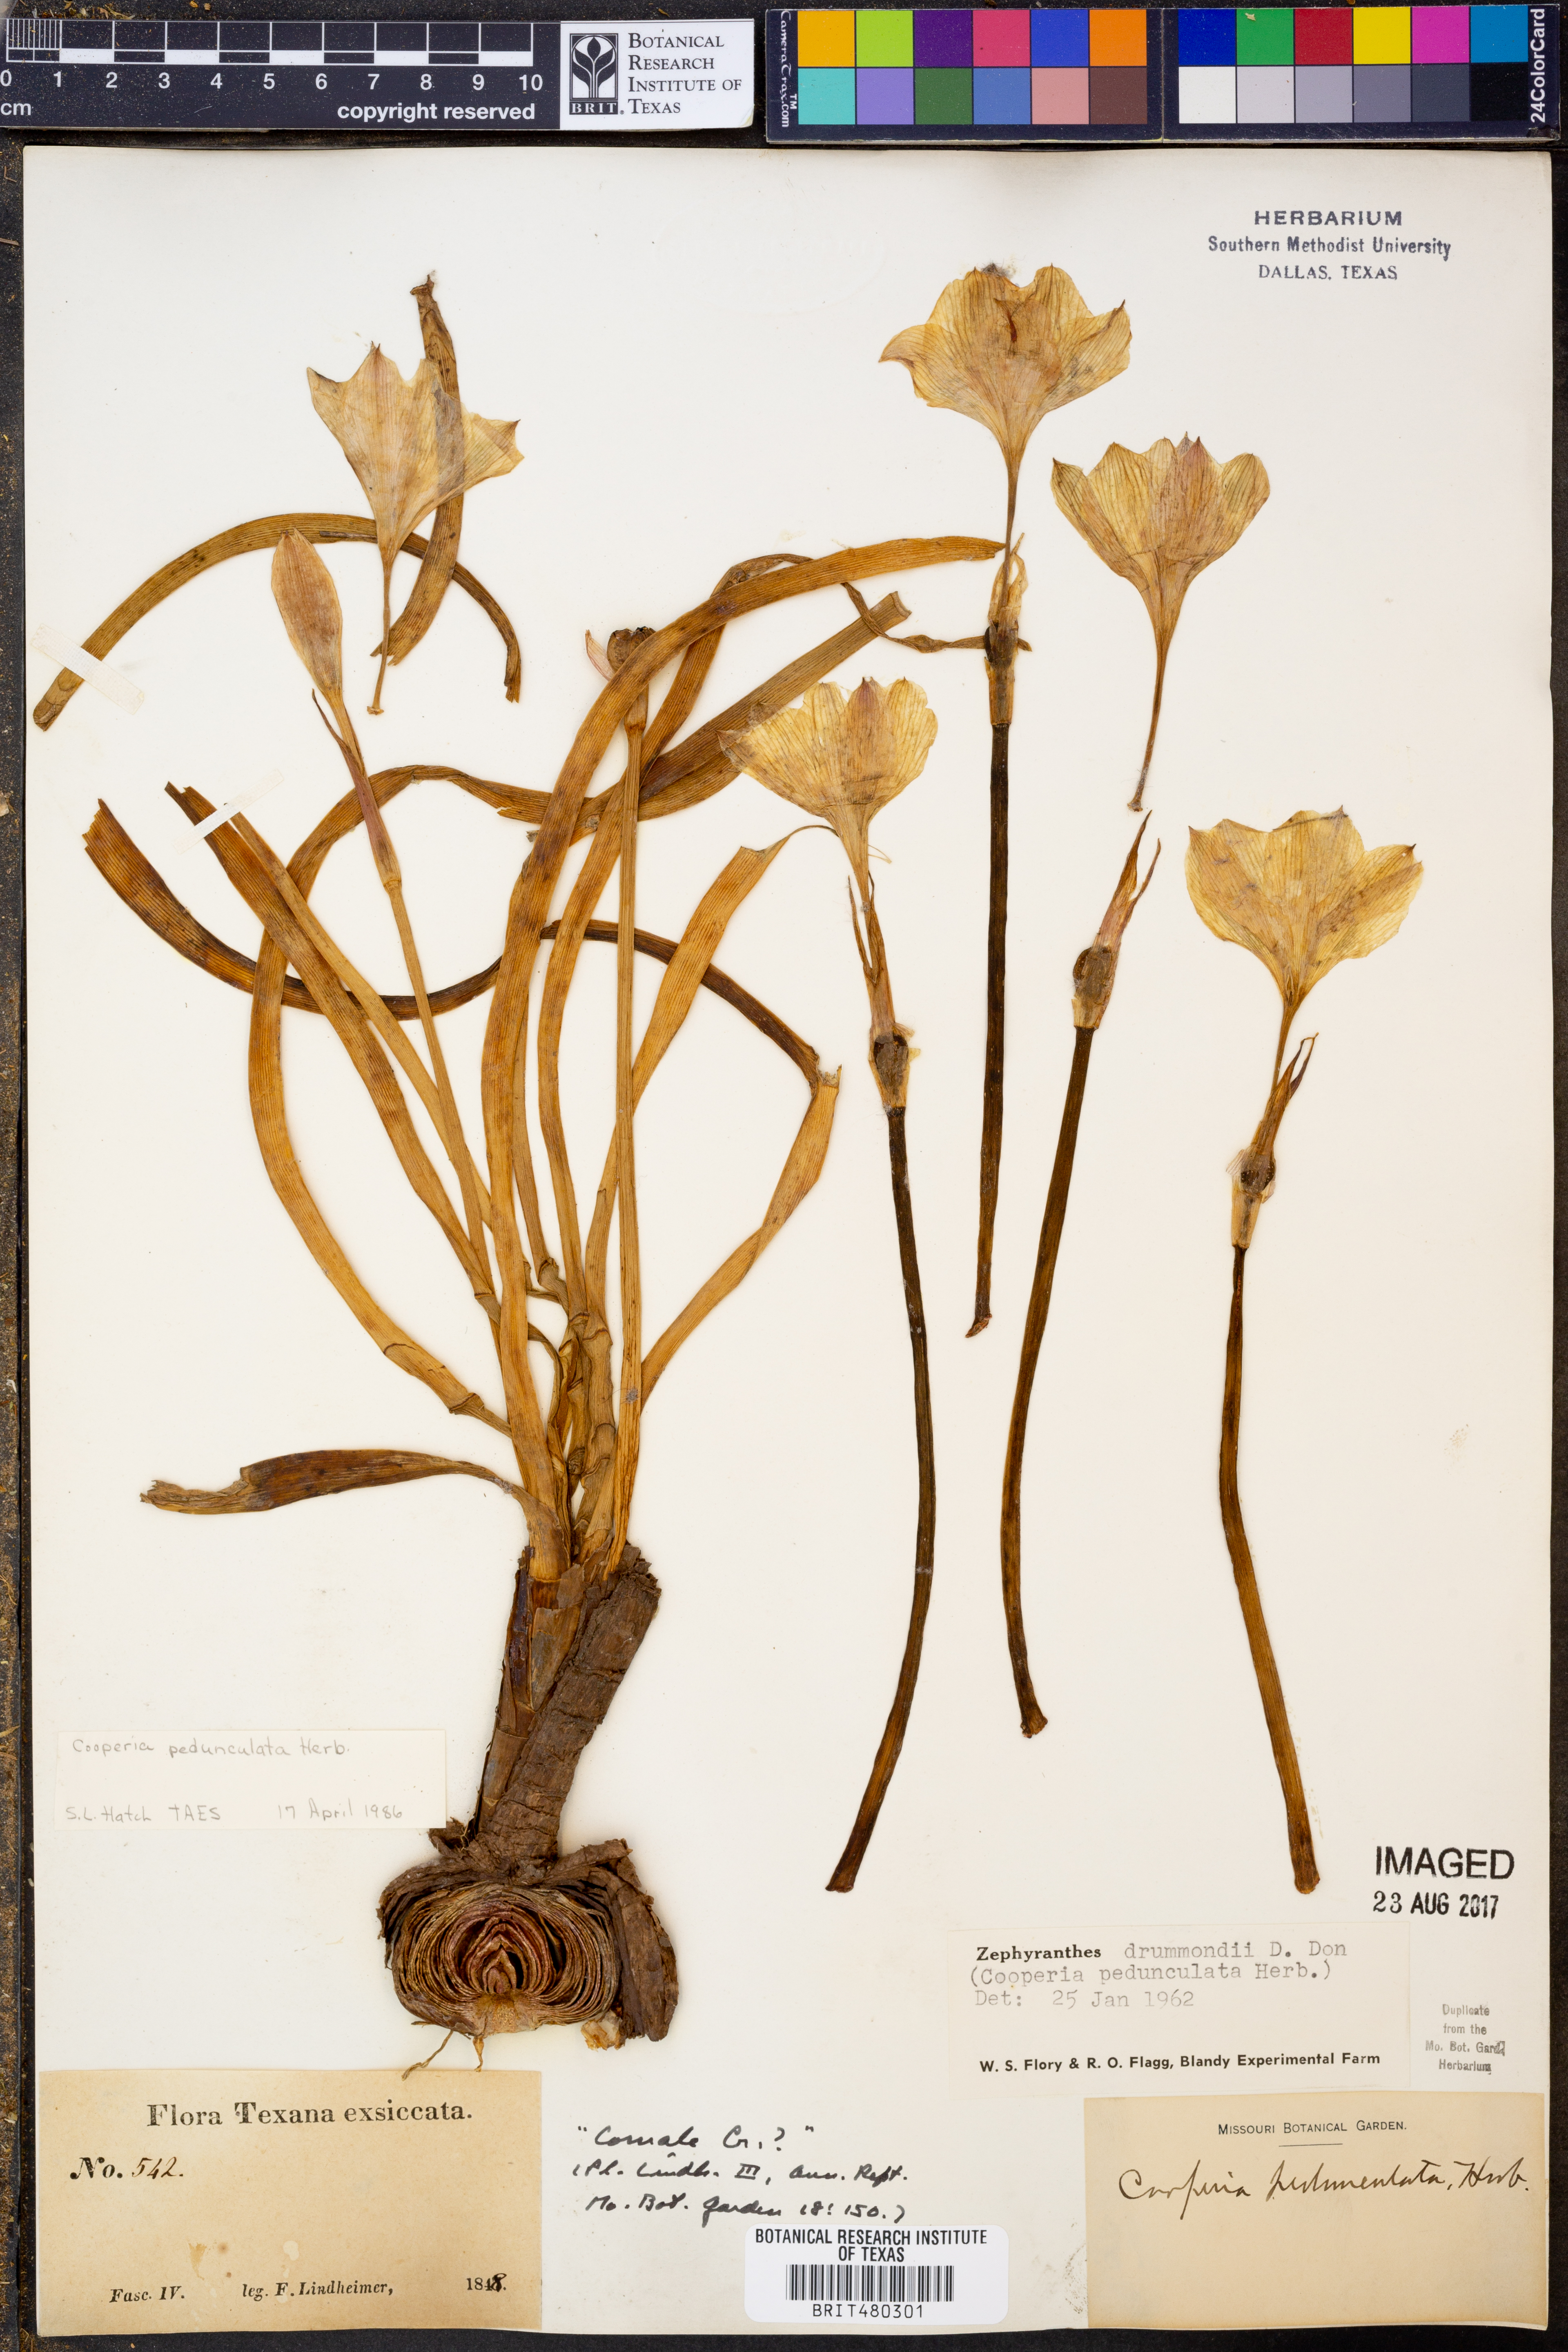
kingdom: Plantae
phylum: Tracheophyta
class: Liliopsida
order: Asparagales
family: Amaryllidaceae
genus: Zephyranthes
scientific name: Zephyranthes drummondii
